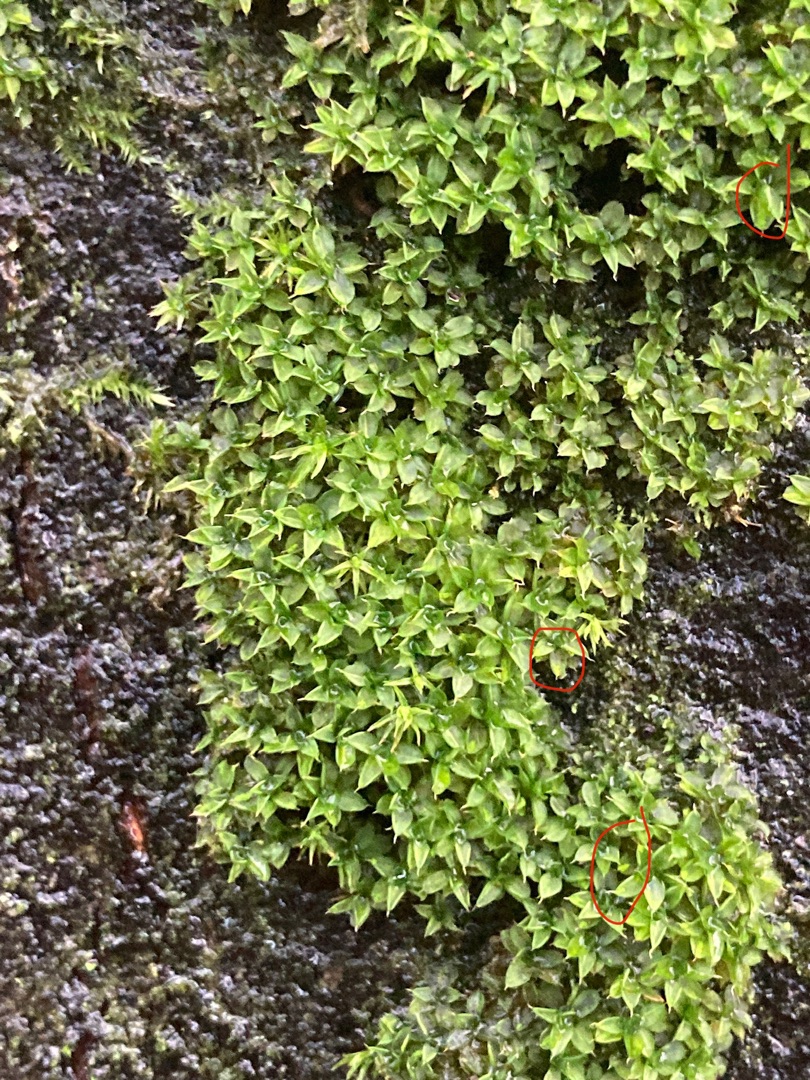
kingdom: Plantae
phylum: Bryophyta
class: Bryopsida
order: Pottiales
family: Pottiaceae
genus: Syntrichia
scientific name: Syntrichia papillosa
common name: Bark-hårstjerne
